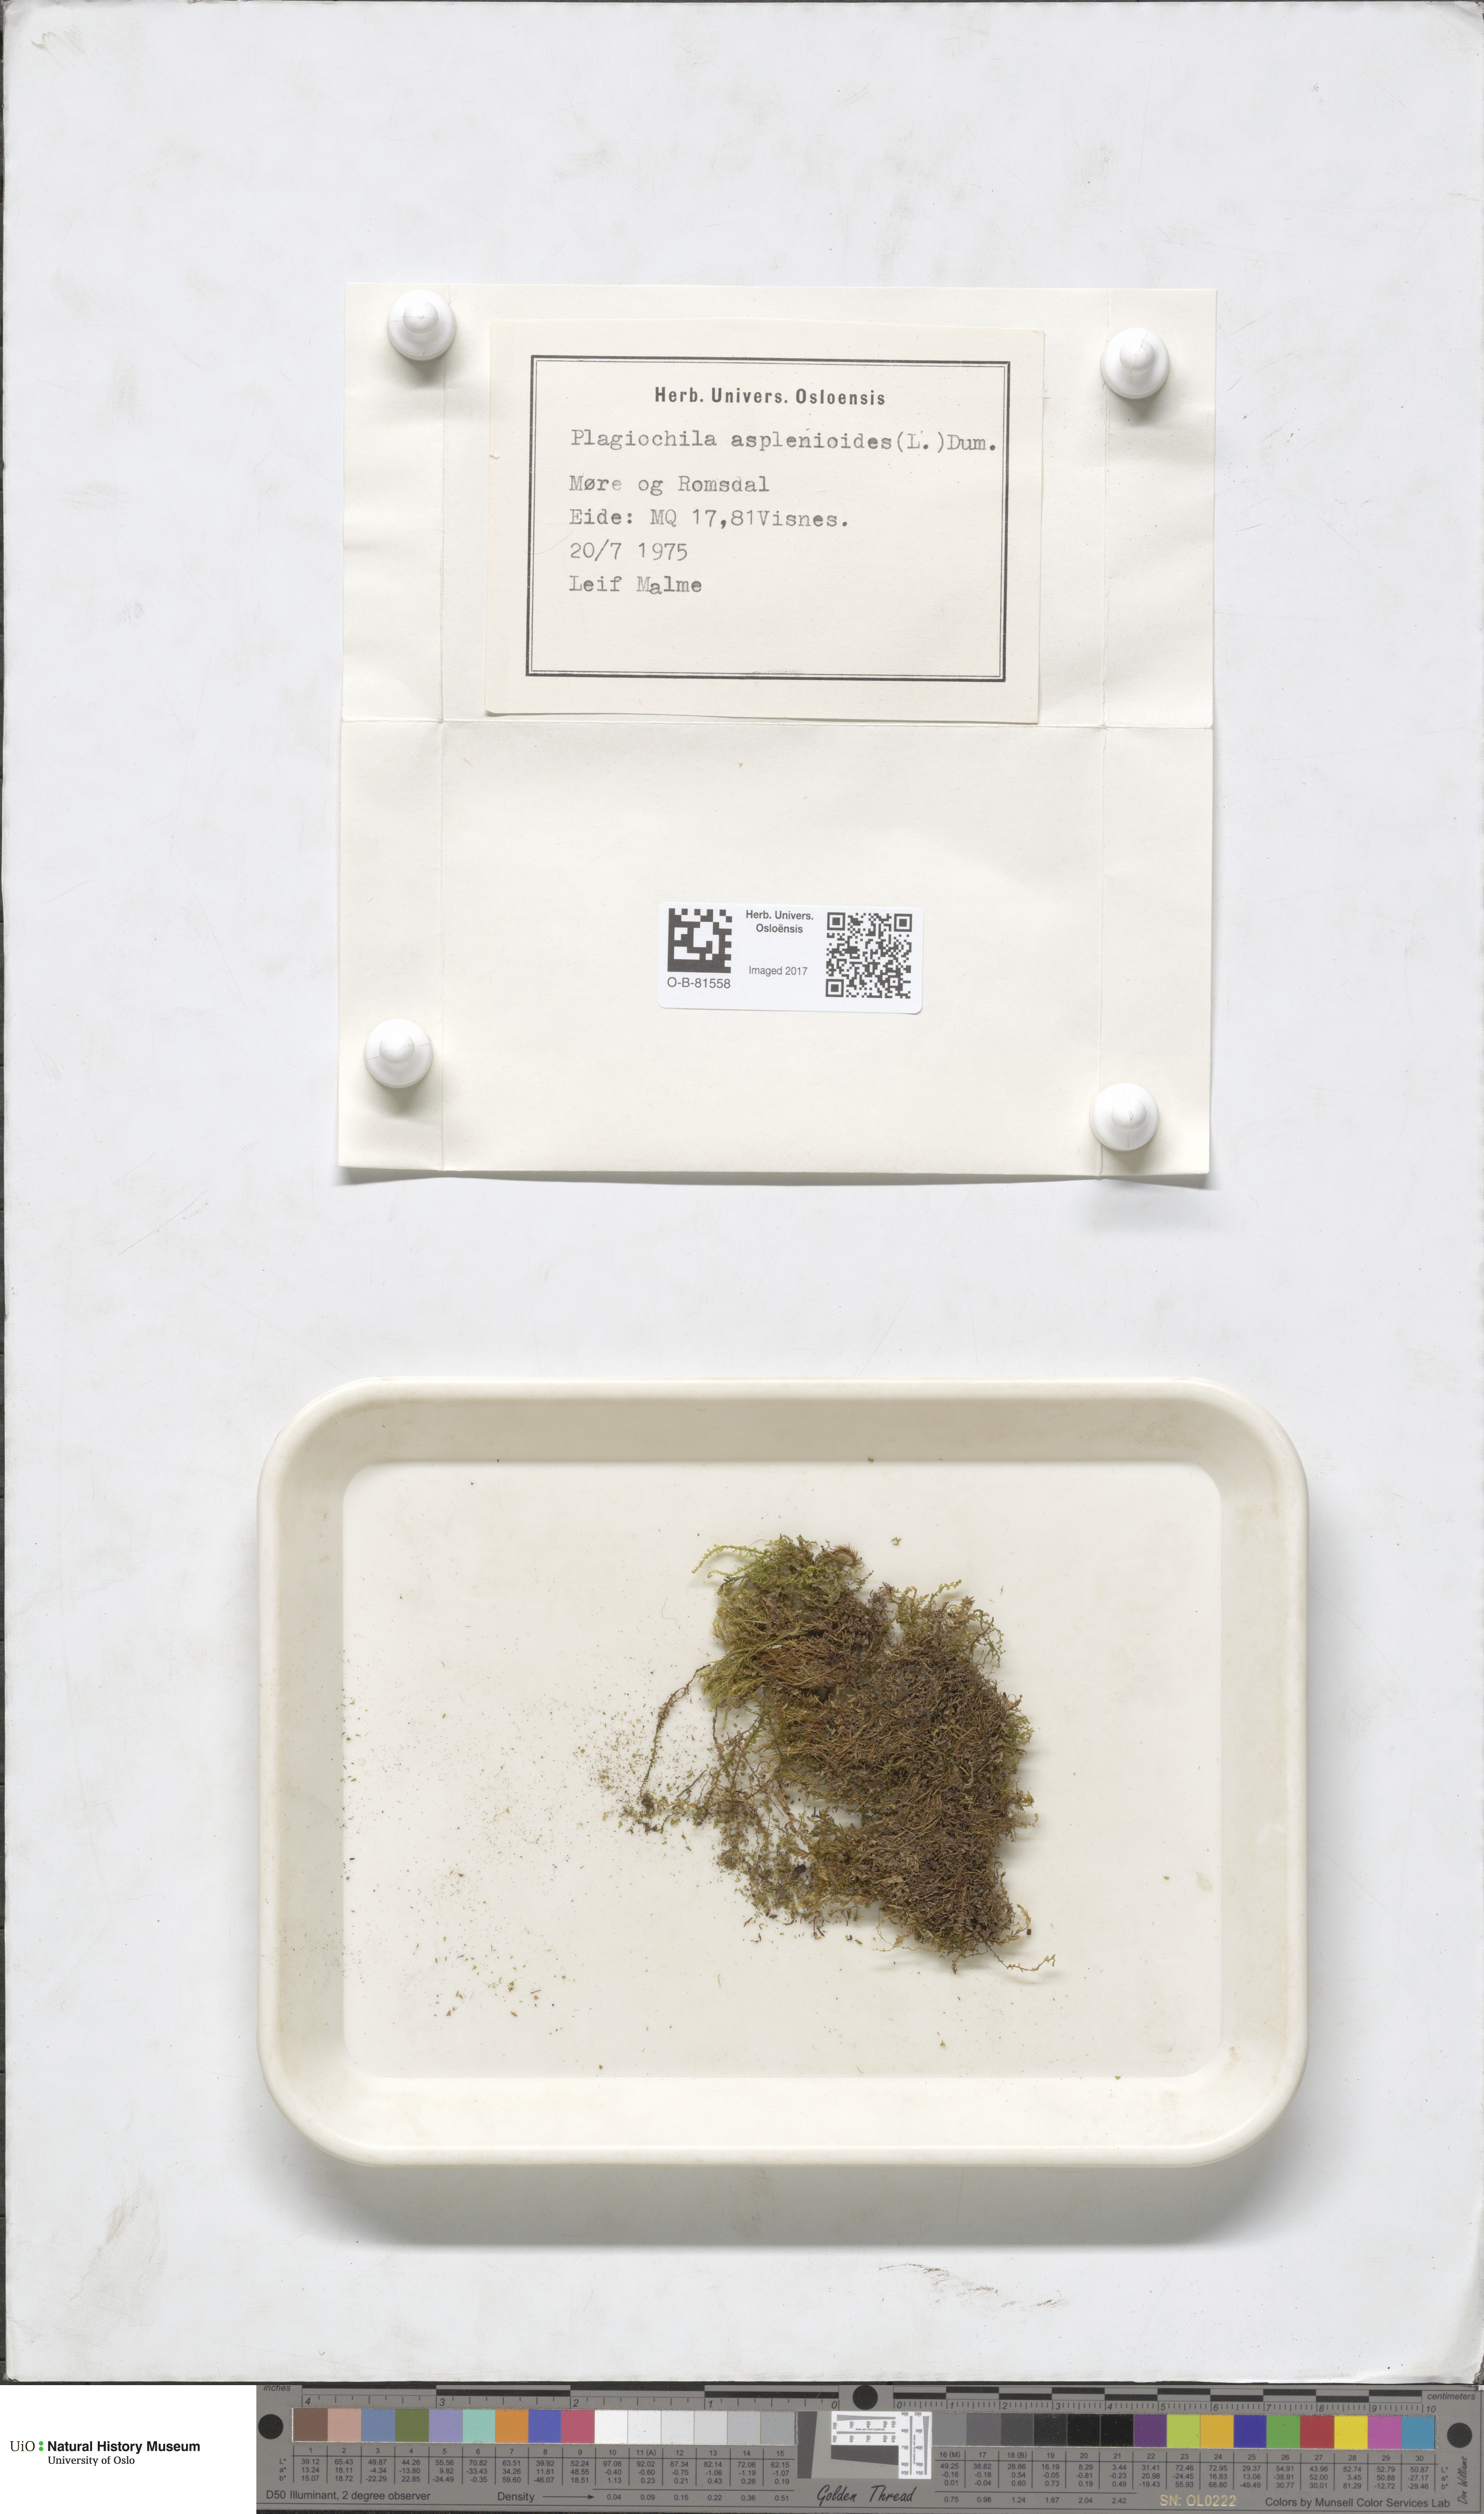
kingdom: Plantae
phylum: Marchantiophyta
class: Jungermanniopsida
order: Jungermanniales
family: Plagiochilaceae
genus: Plagiochila
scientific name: Plagiochila asplenioides
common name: Greater featherwort
